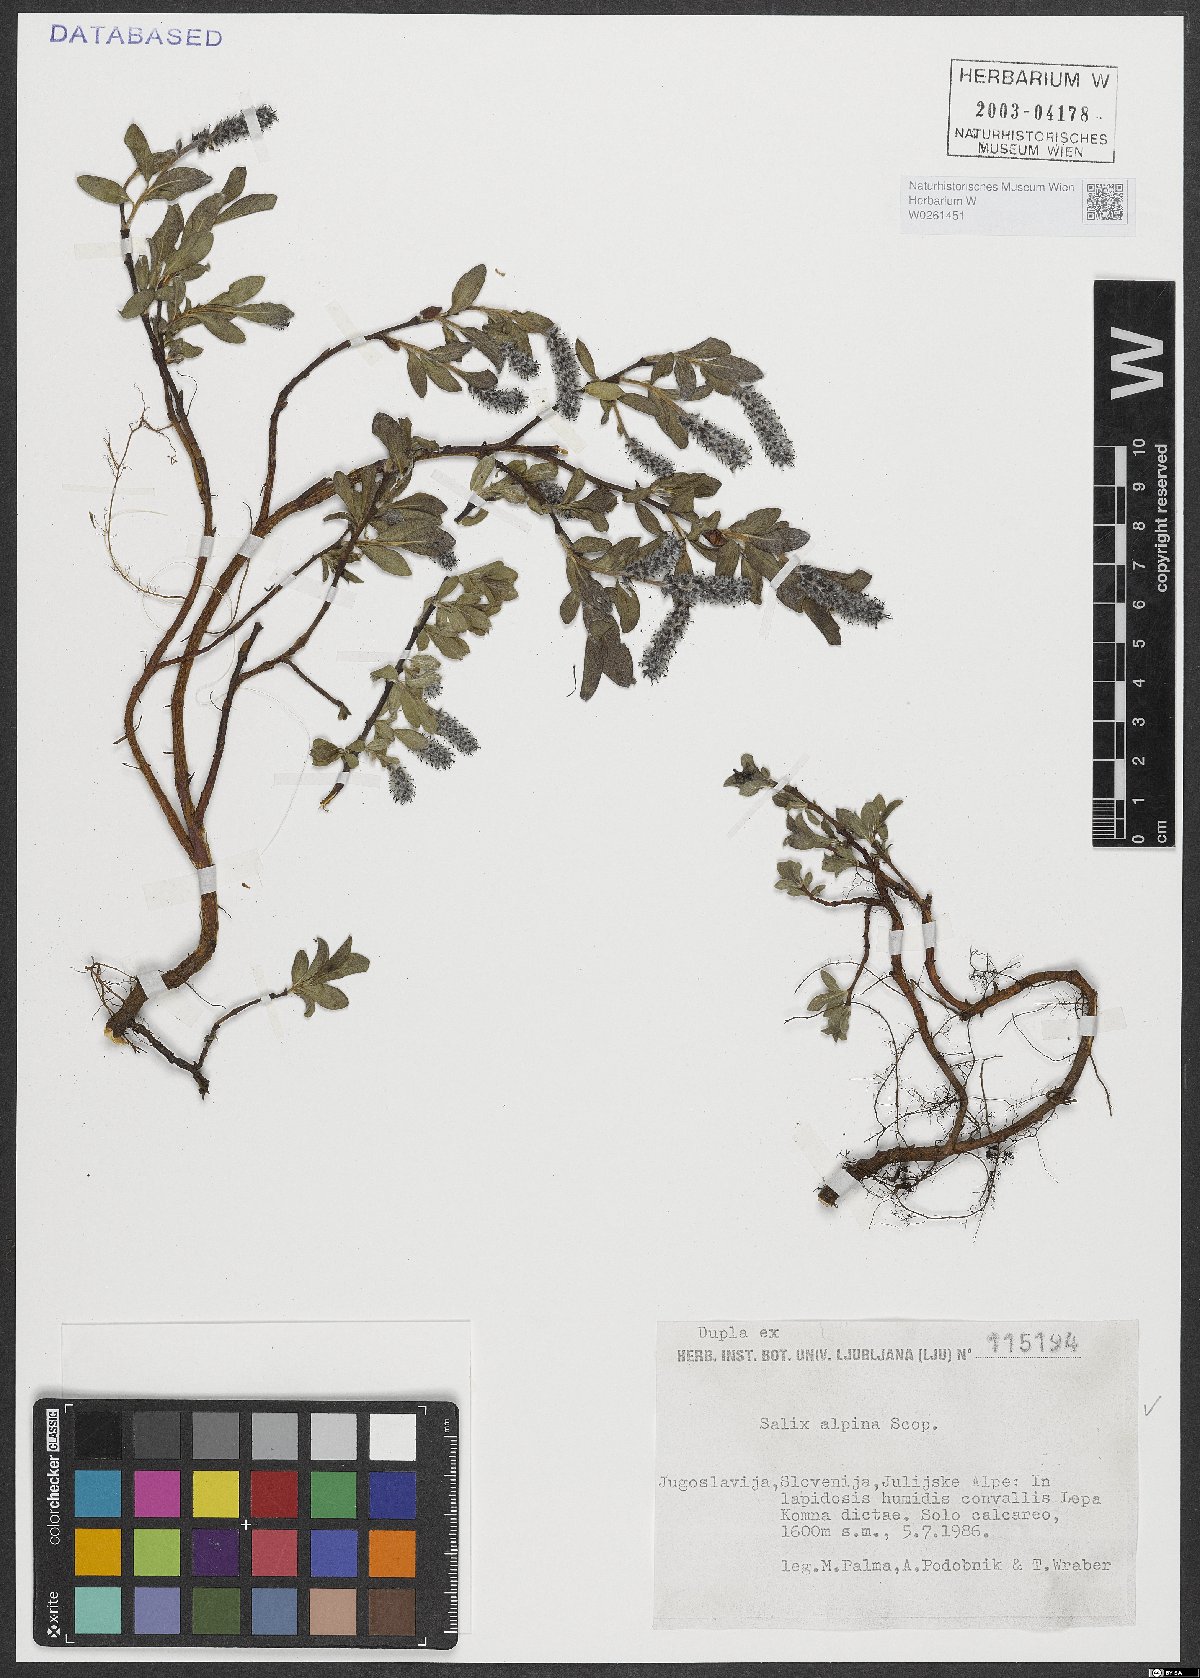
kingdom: Plantae
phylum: Tracheophyta
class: Magnoliopsida
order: Malpighiales
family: Salicaceae
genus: Salix
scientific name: Salix alpina
